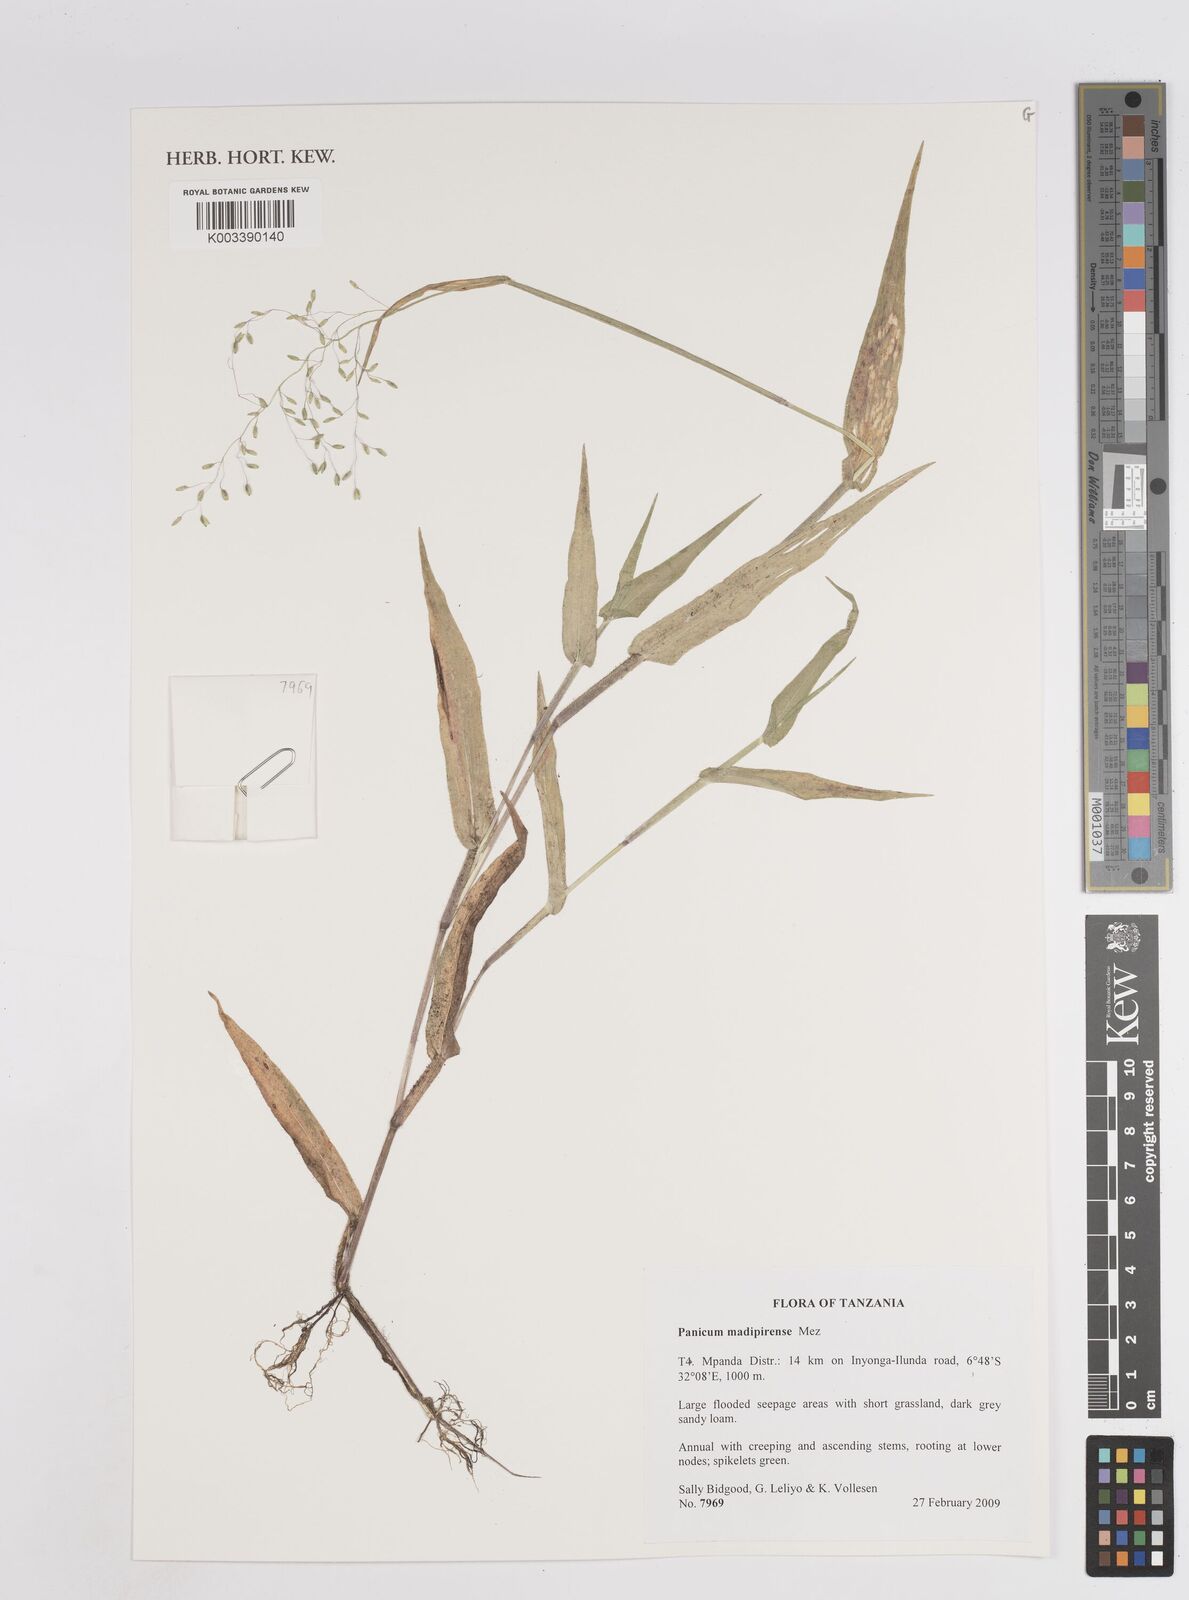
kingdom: Plantae
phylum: Tracheophyta
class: Liliopsida
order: Poales
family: Poaceae
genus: Panicum
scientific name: Panicum madipirense
